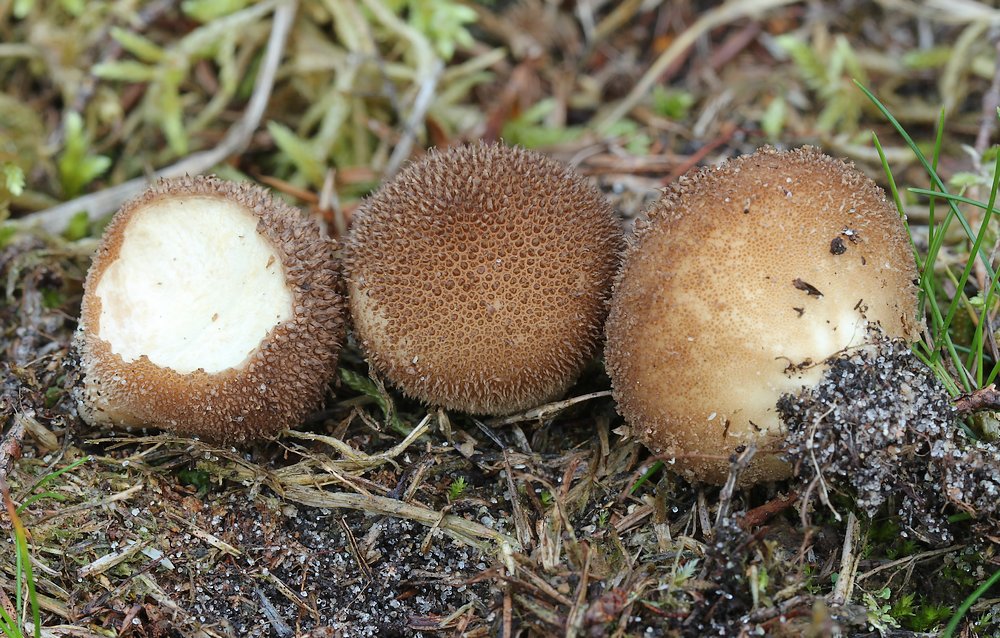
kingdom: Fungi
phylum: Basidiomycota
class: Agaricomycetes
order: Agaricales
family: Lycoperdaceae
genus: Lycoperdon
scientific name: Lycoperdon nigrescens
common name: sortagtig støvbold
